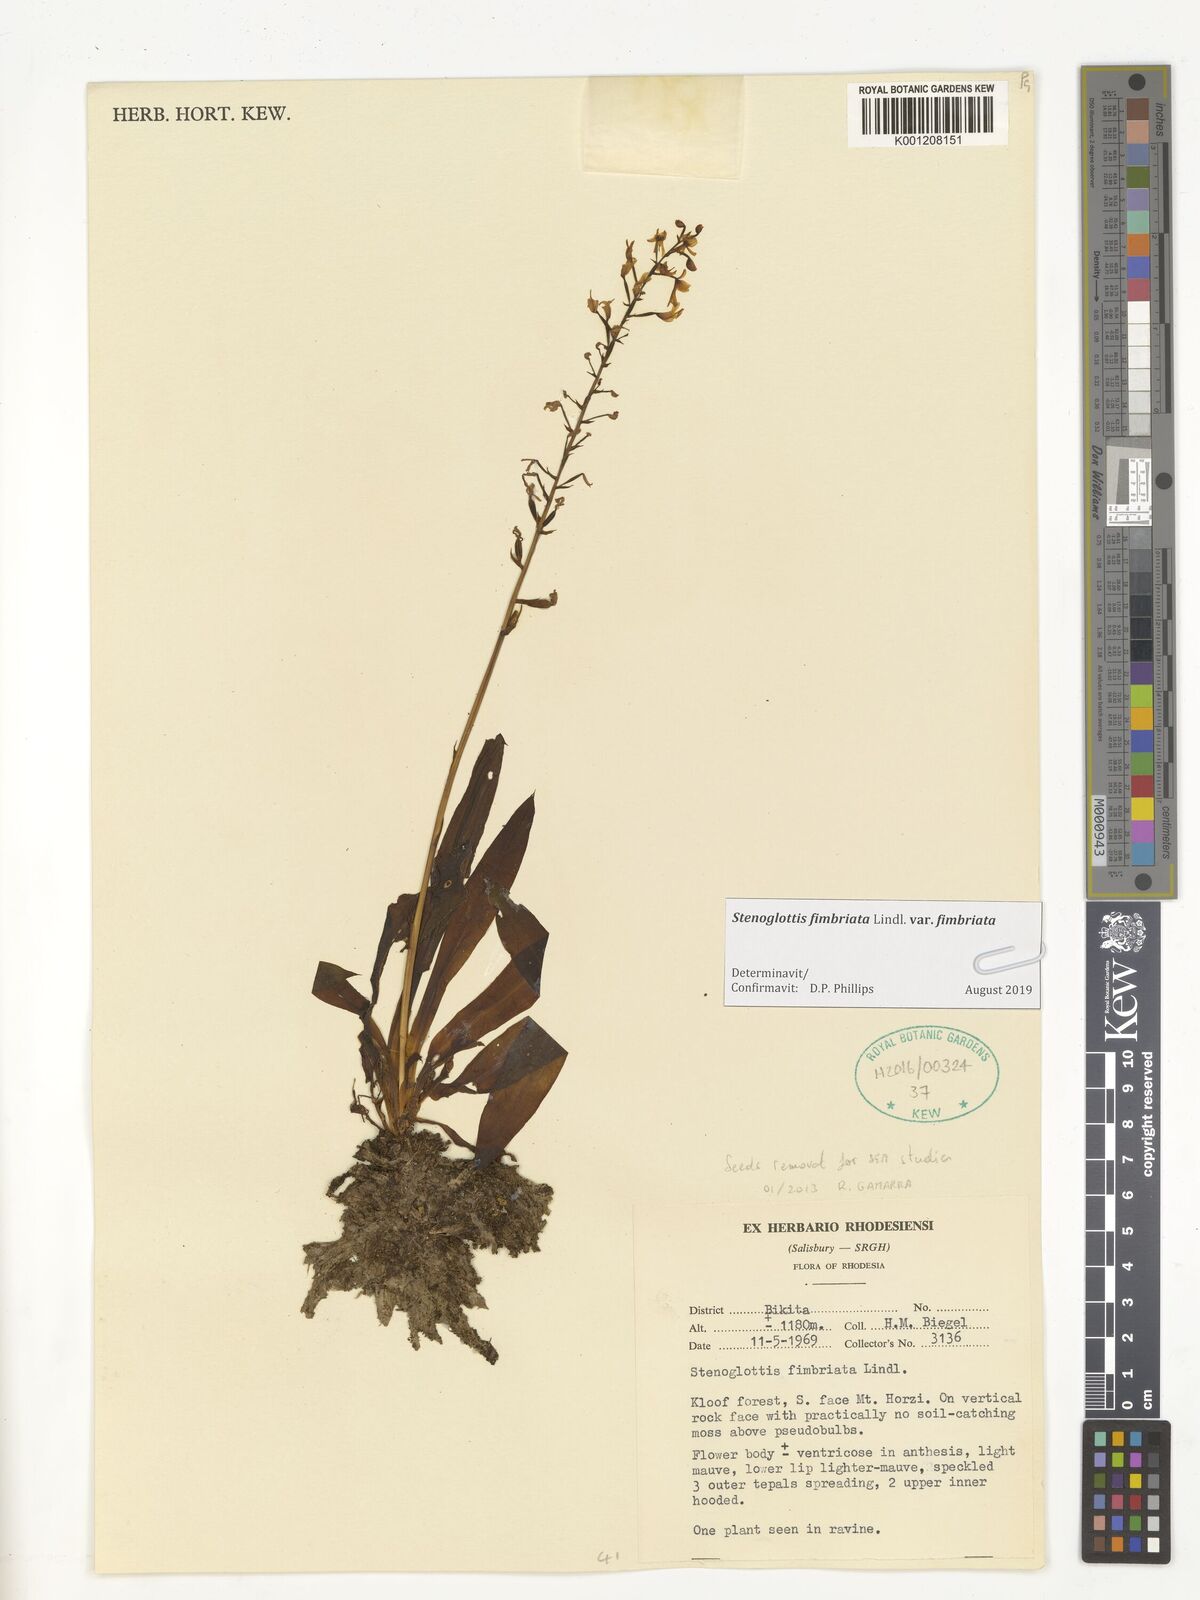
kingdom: Plantae
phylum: Tracheophyta
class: Liliopsida
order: Asparagales
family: Orchidaceae
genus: Stenoglottis
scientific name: Stenoglottis fimbriata
